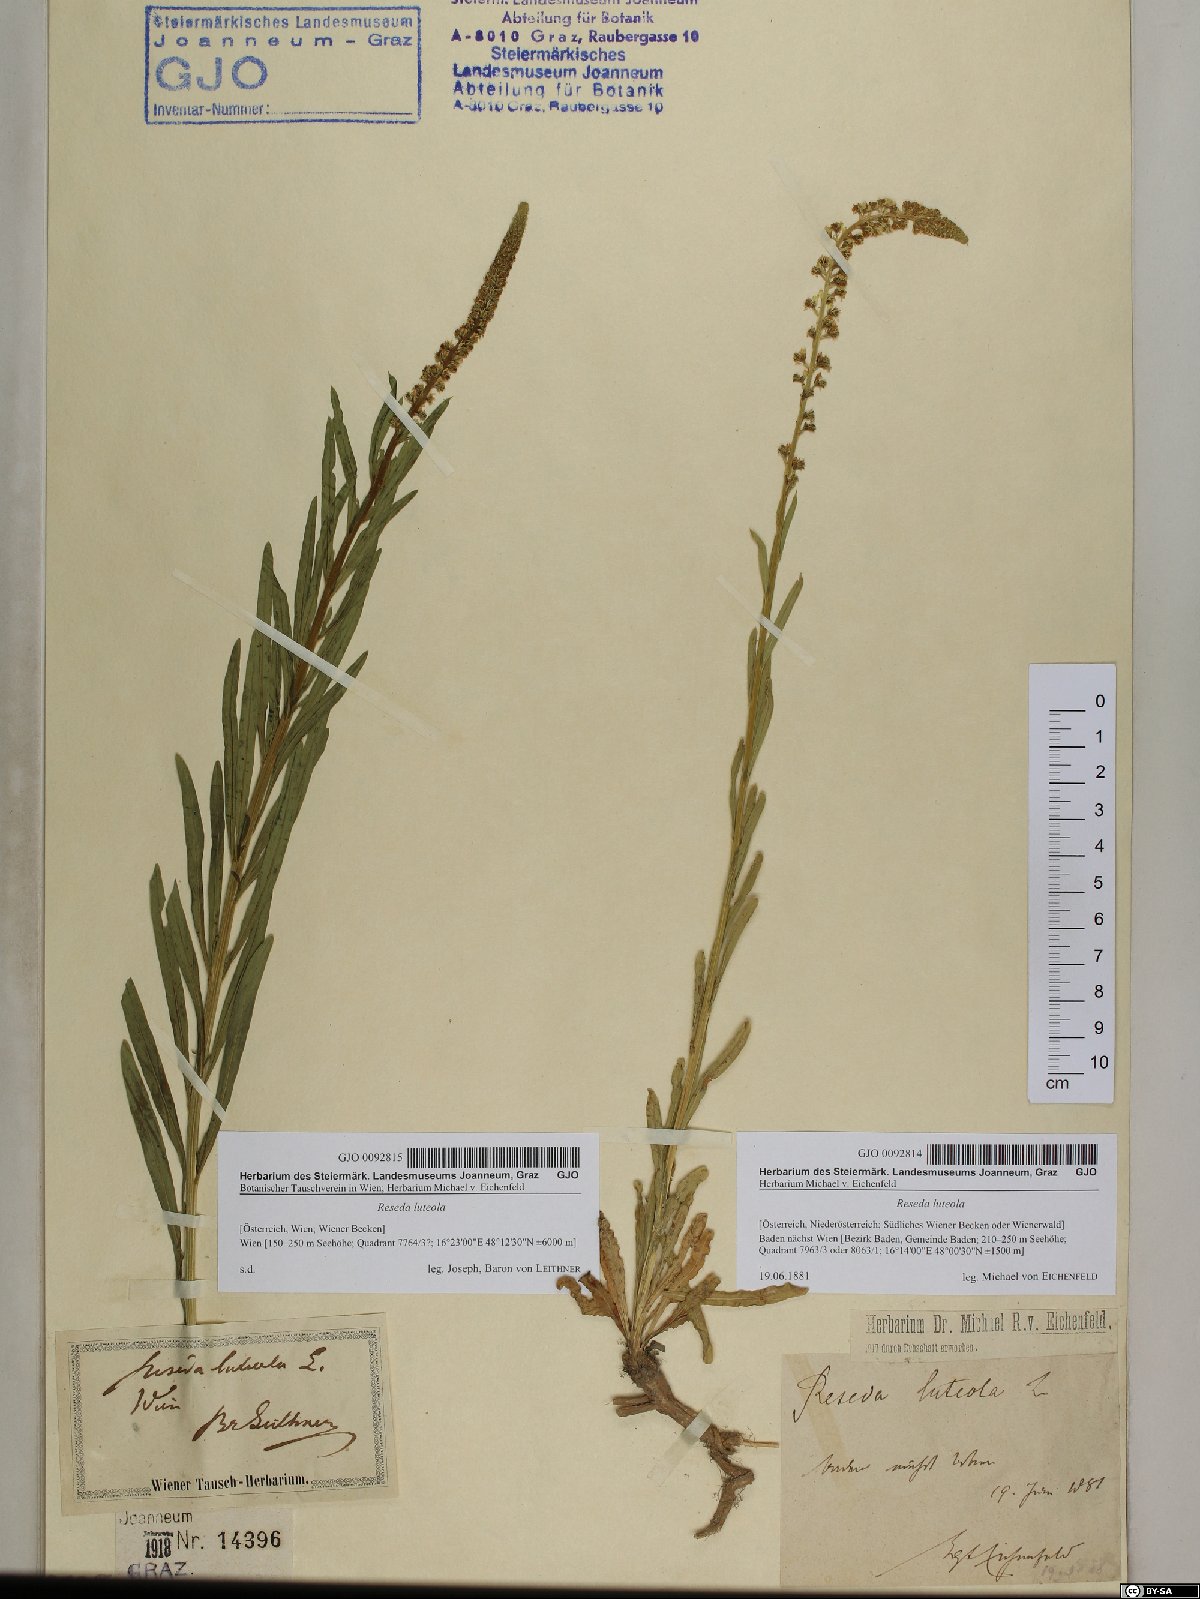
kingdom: Plantae
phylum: Tracheophyta
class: Magnoliopsida
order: Brassicales
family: Resedaceae
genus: Reseda
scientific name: Reseda luteola
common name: Weld
